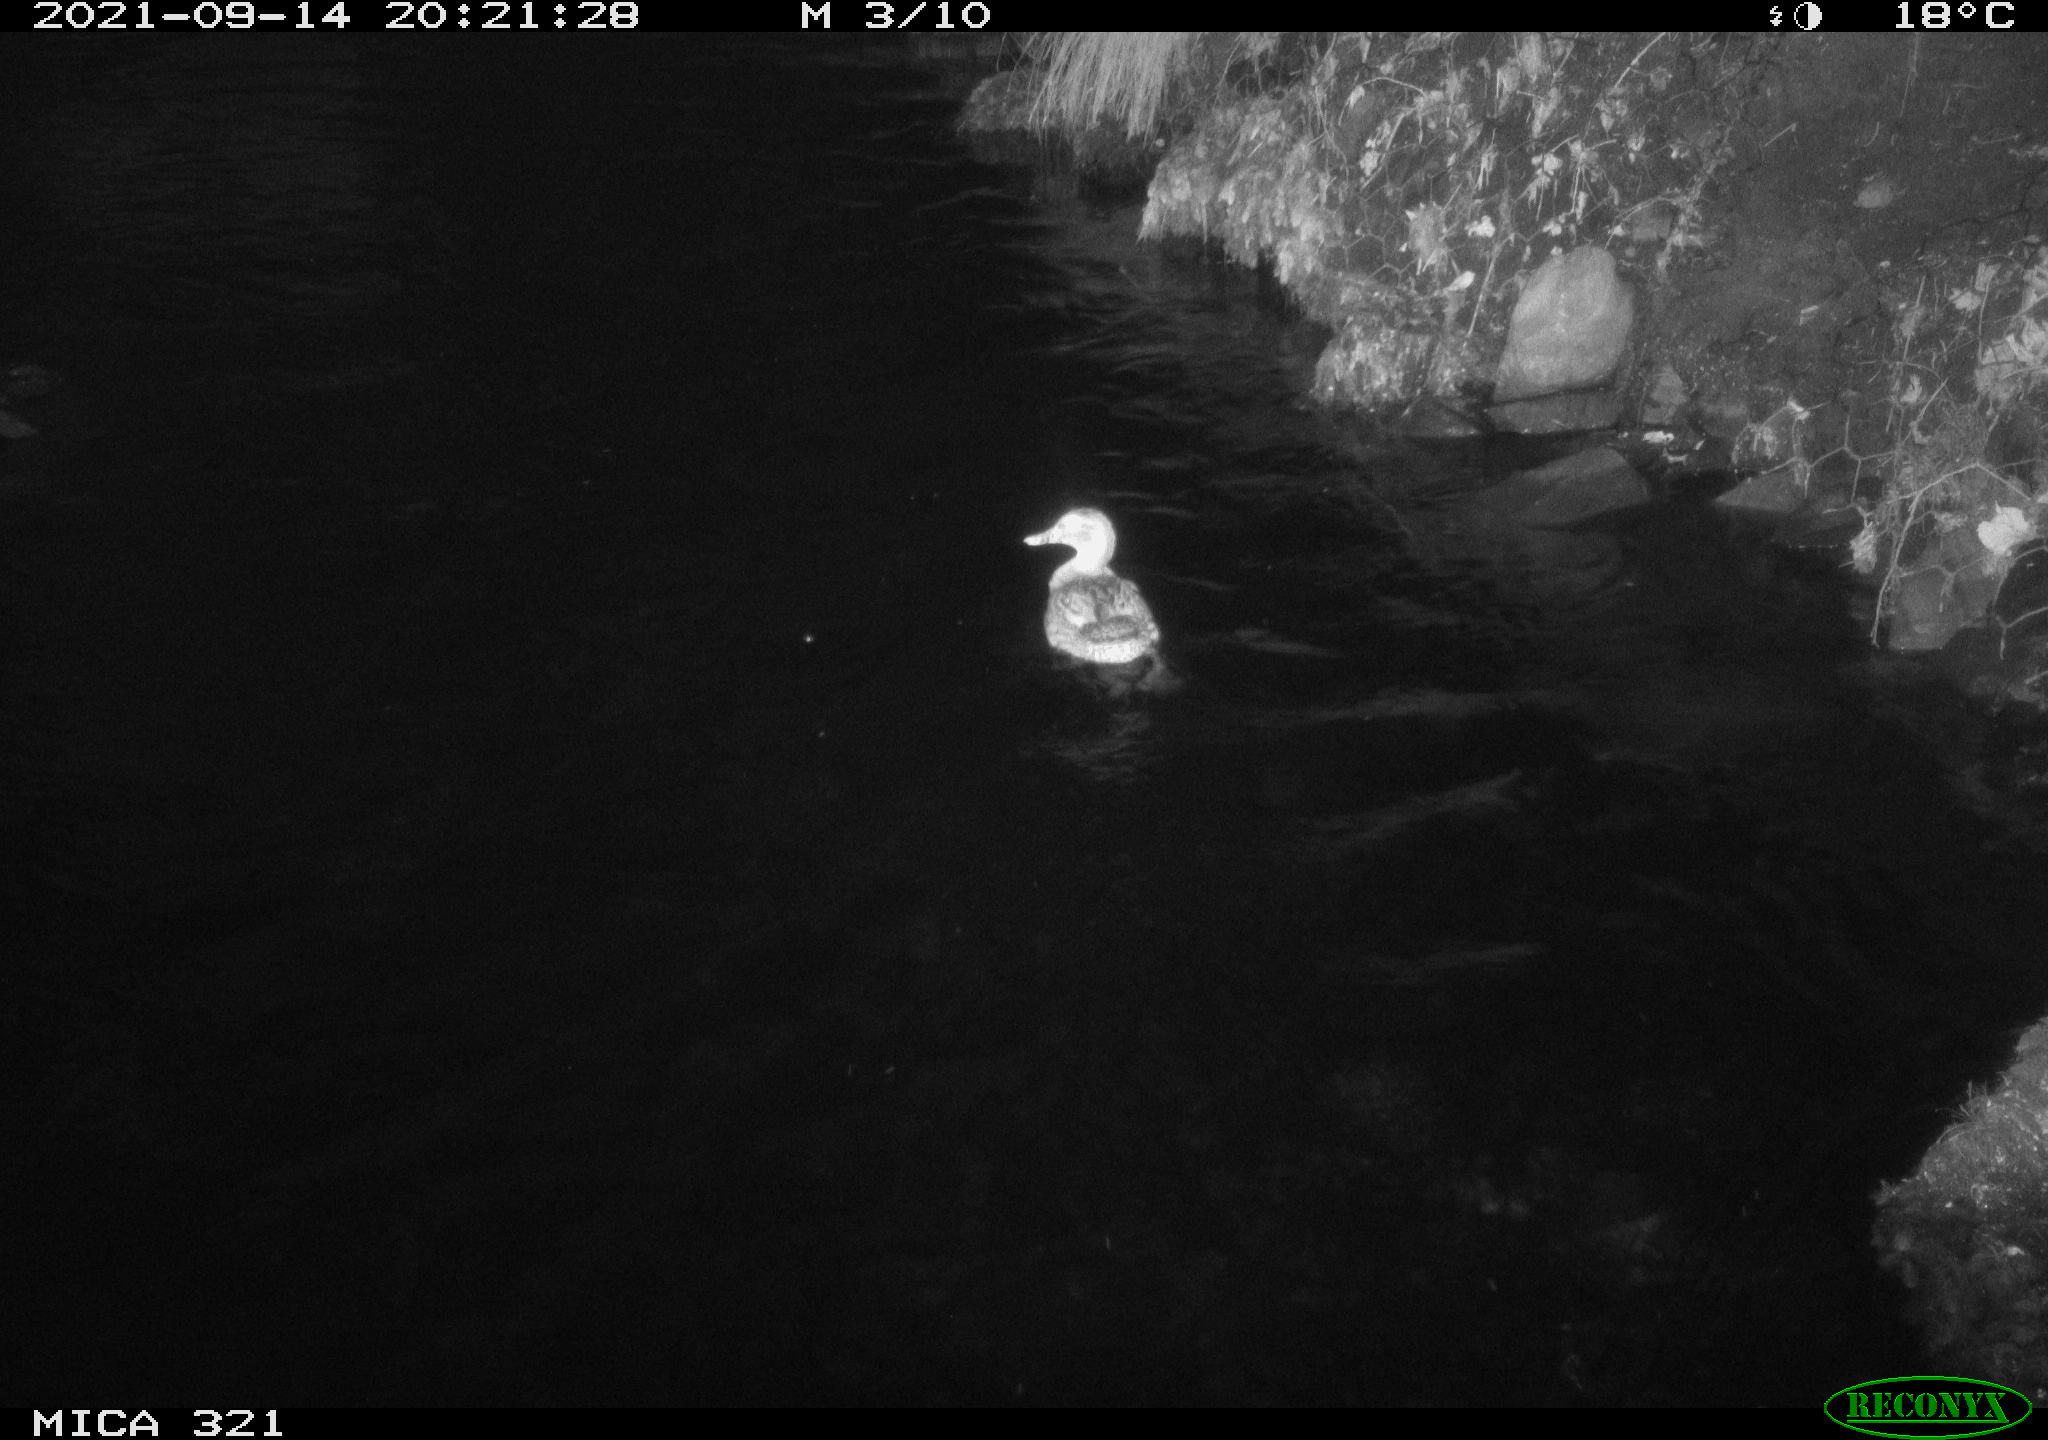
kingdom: Animalia
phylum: Chordata
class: Aves
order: Anseriformes
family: Anatidae
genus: Anas
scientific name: Anas platyrhynchos
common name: Mallard
